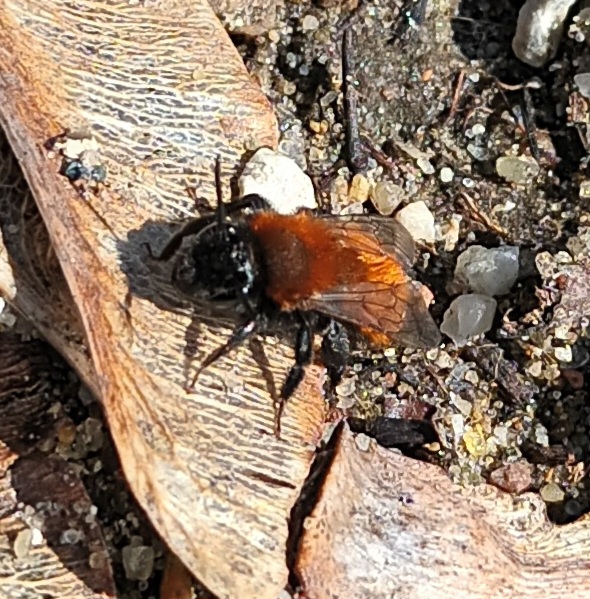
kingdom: Animalia
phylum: Arthropoda
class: Insecta
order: Hymenoptera
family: Andrenidae
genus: Andrena
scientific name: Andrena fulva
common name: Rødpelset jordbi
